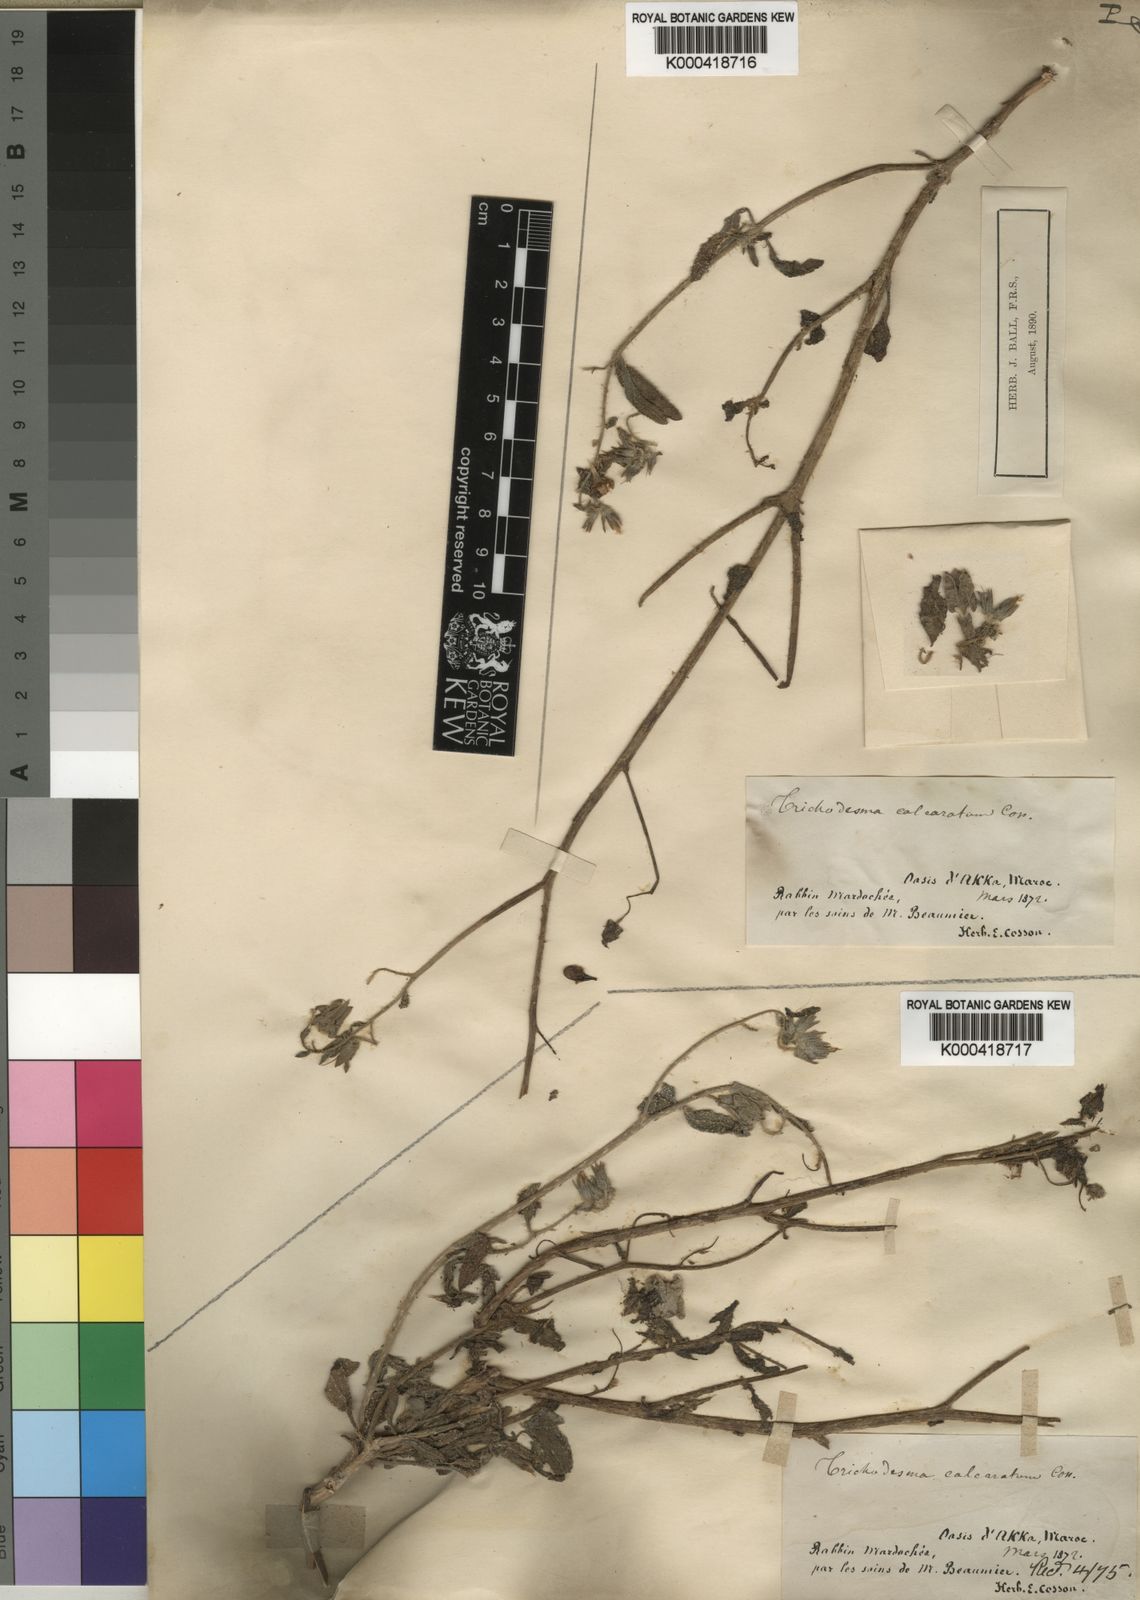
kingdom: Plantae
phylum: Tracheophyta
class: Magnoliopsida
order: Boraginales
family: Boraginaceae
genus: Trichodesma
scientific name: Trichodesma
